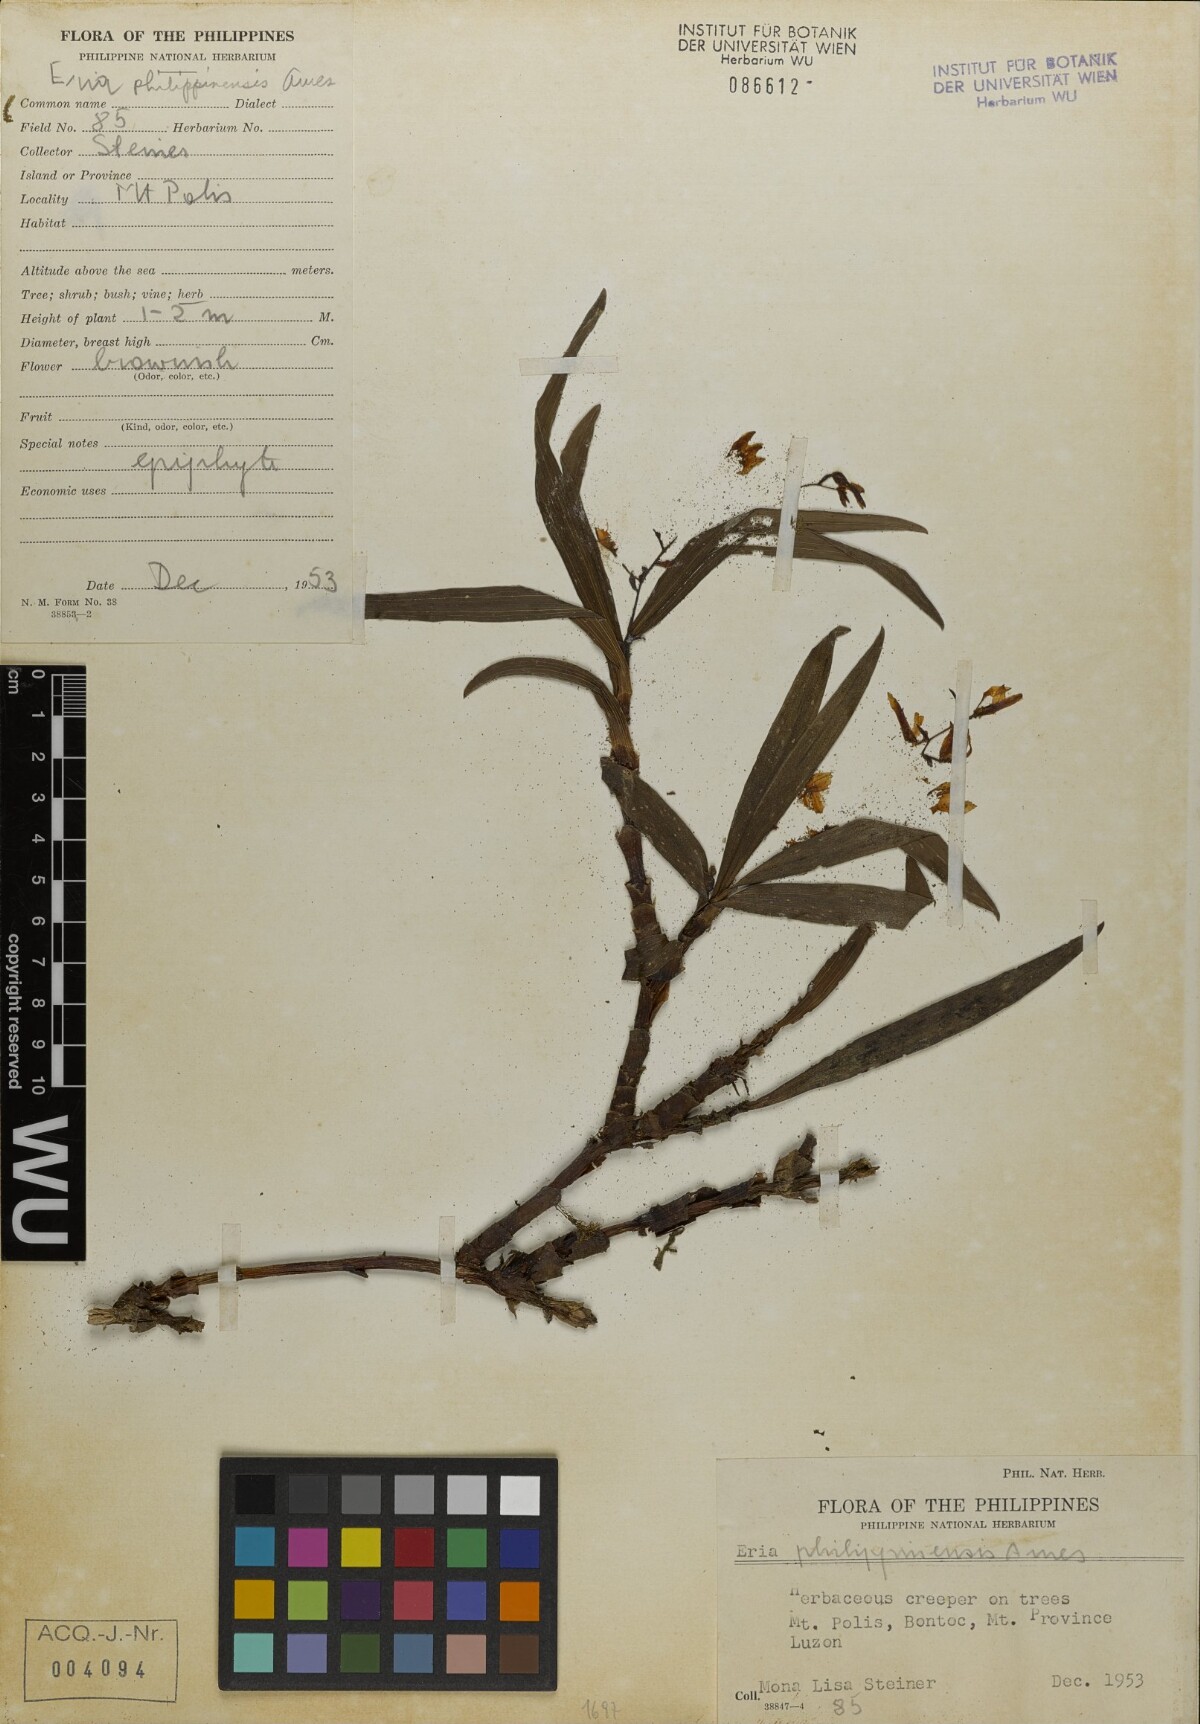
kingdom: Plantae
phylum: Tracheophyta
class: Liliopsida
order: Asparagales
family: Orchidaceae
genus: Pinalia
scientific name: Pinalia philippinensis
